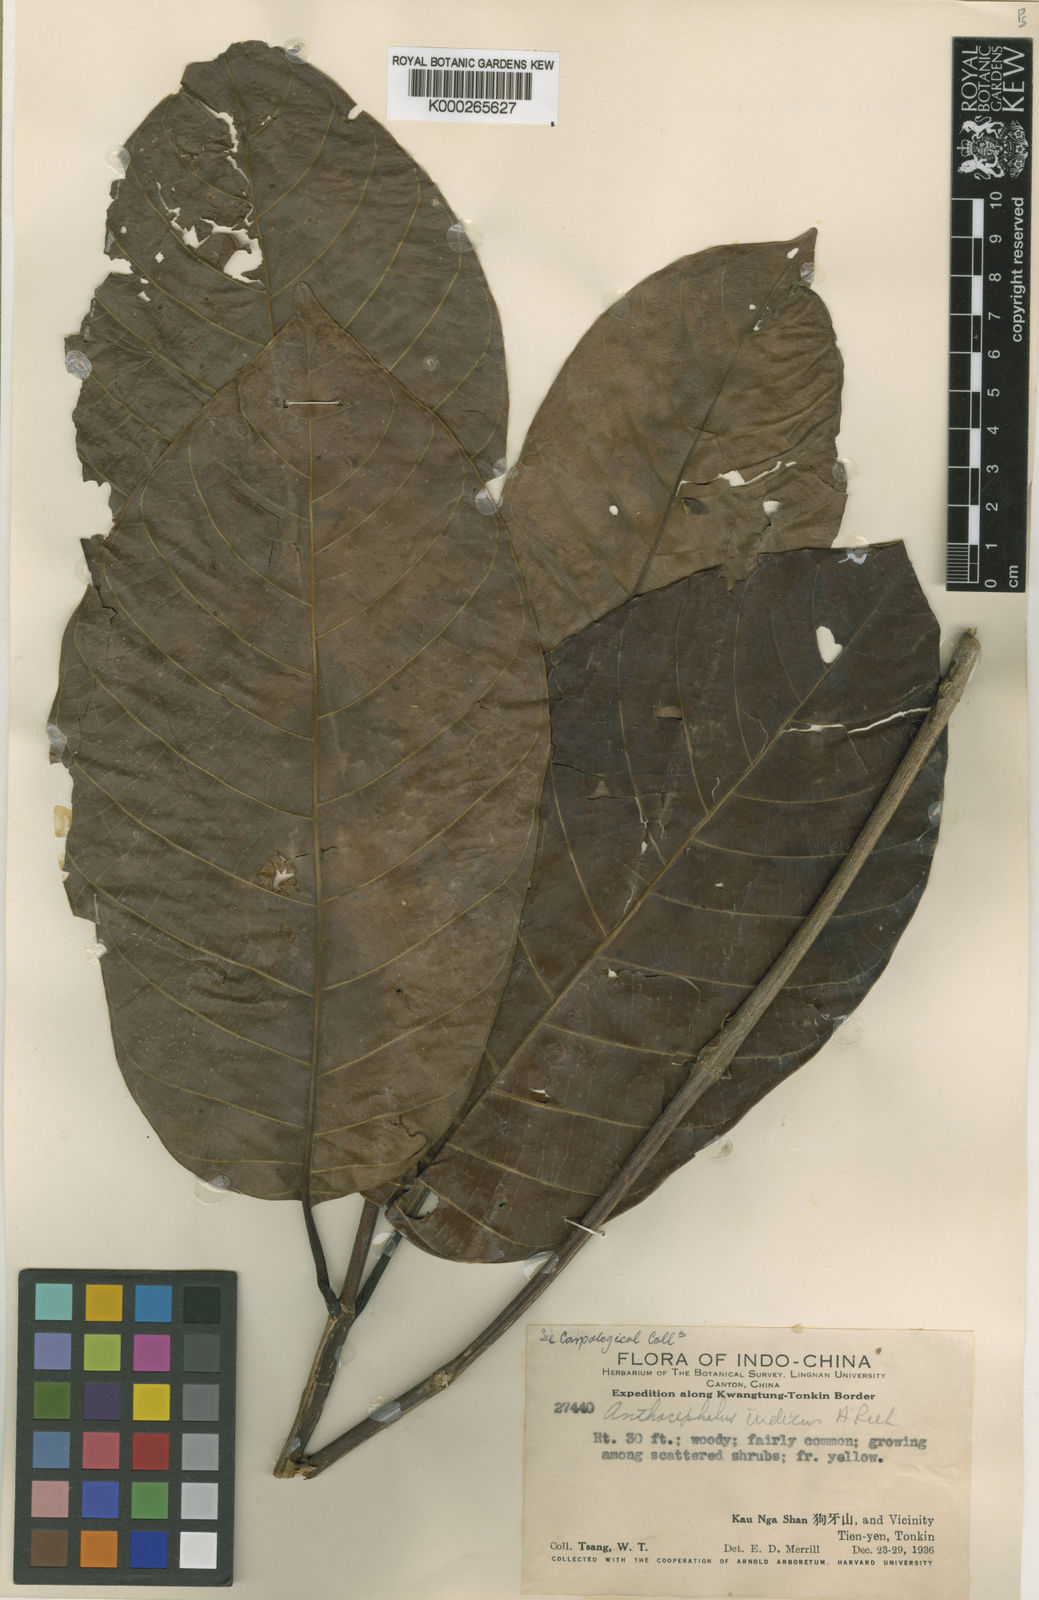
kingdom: Plantae
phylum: Tracheophyta
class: Magnoliopsida
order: Gentianales
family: Rubiaceae
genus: Neolamarckia
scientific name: Neolamarckia cadamba
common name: Leichhardt-pine
